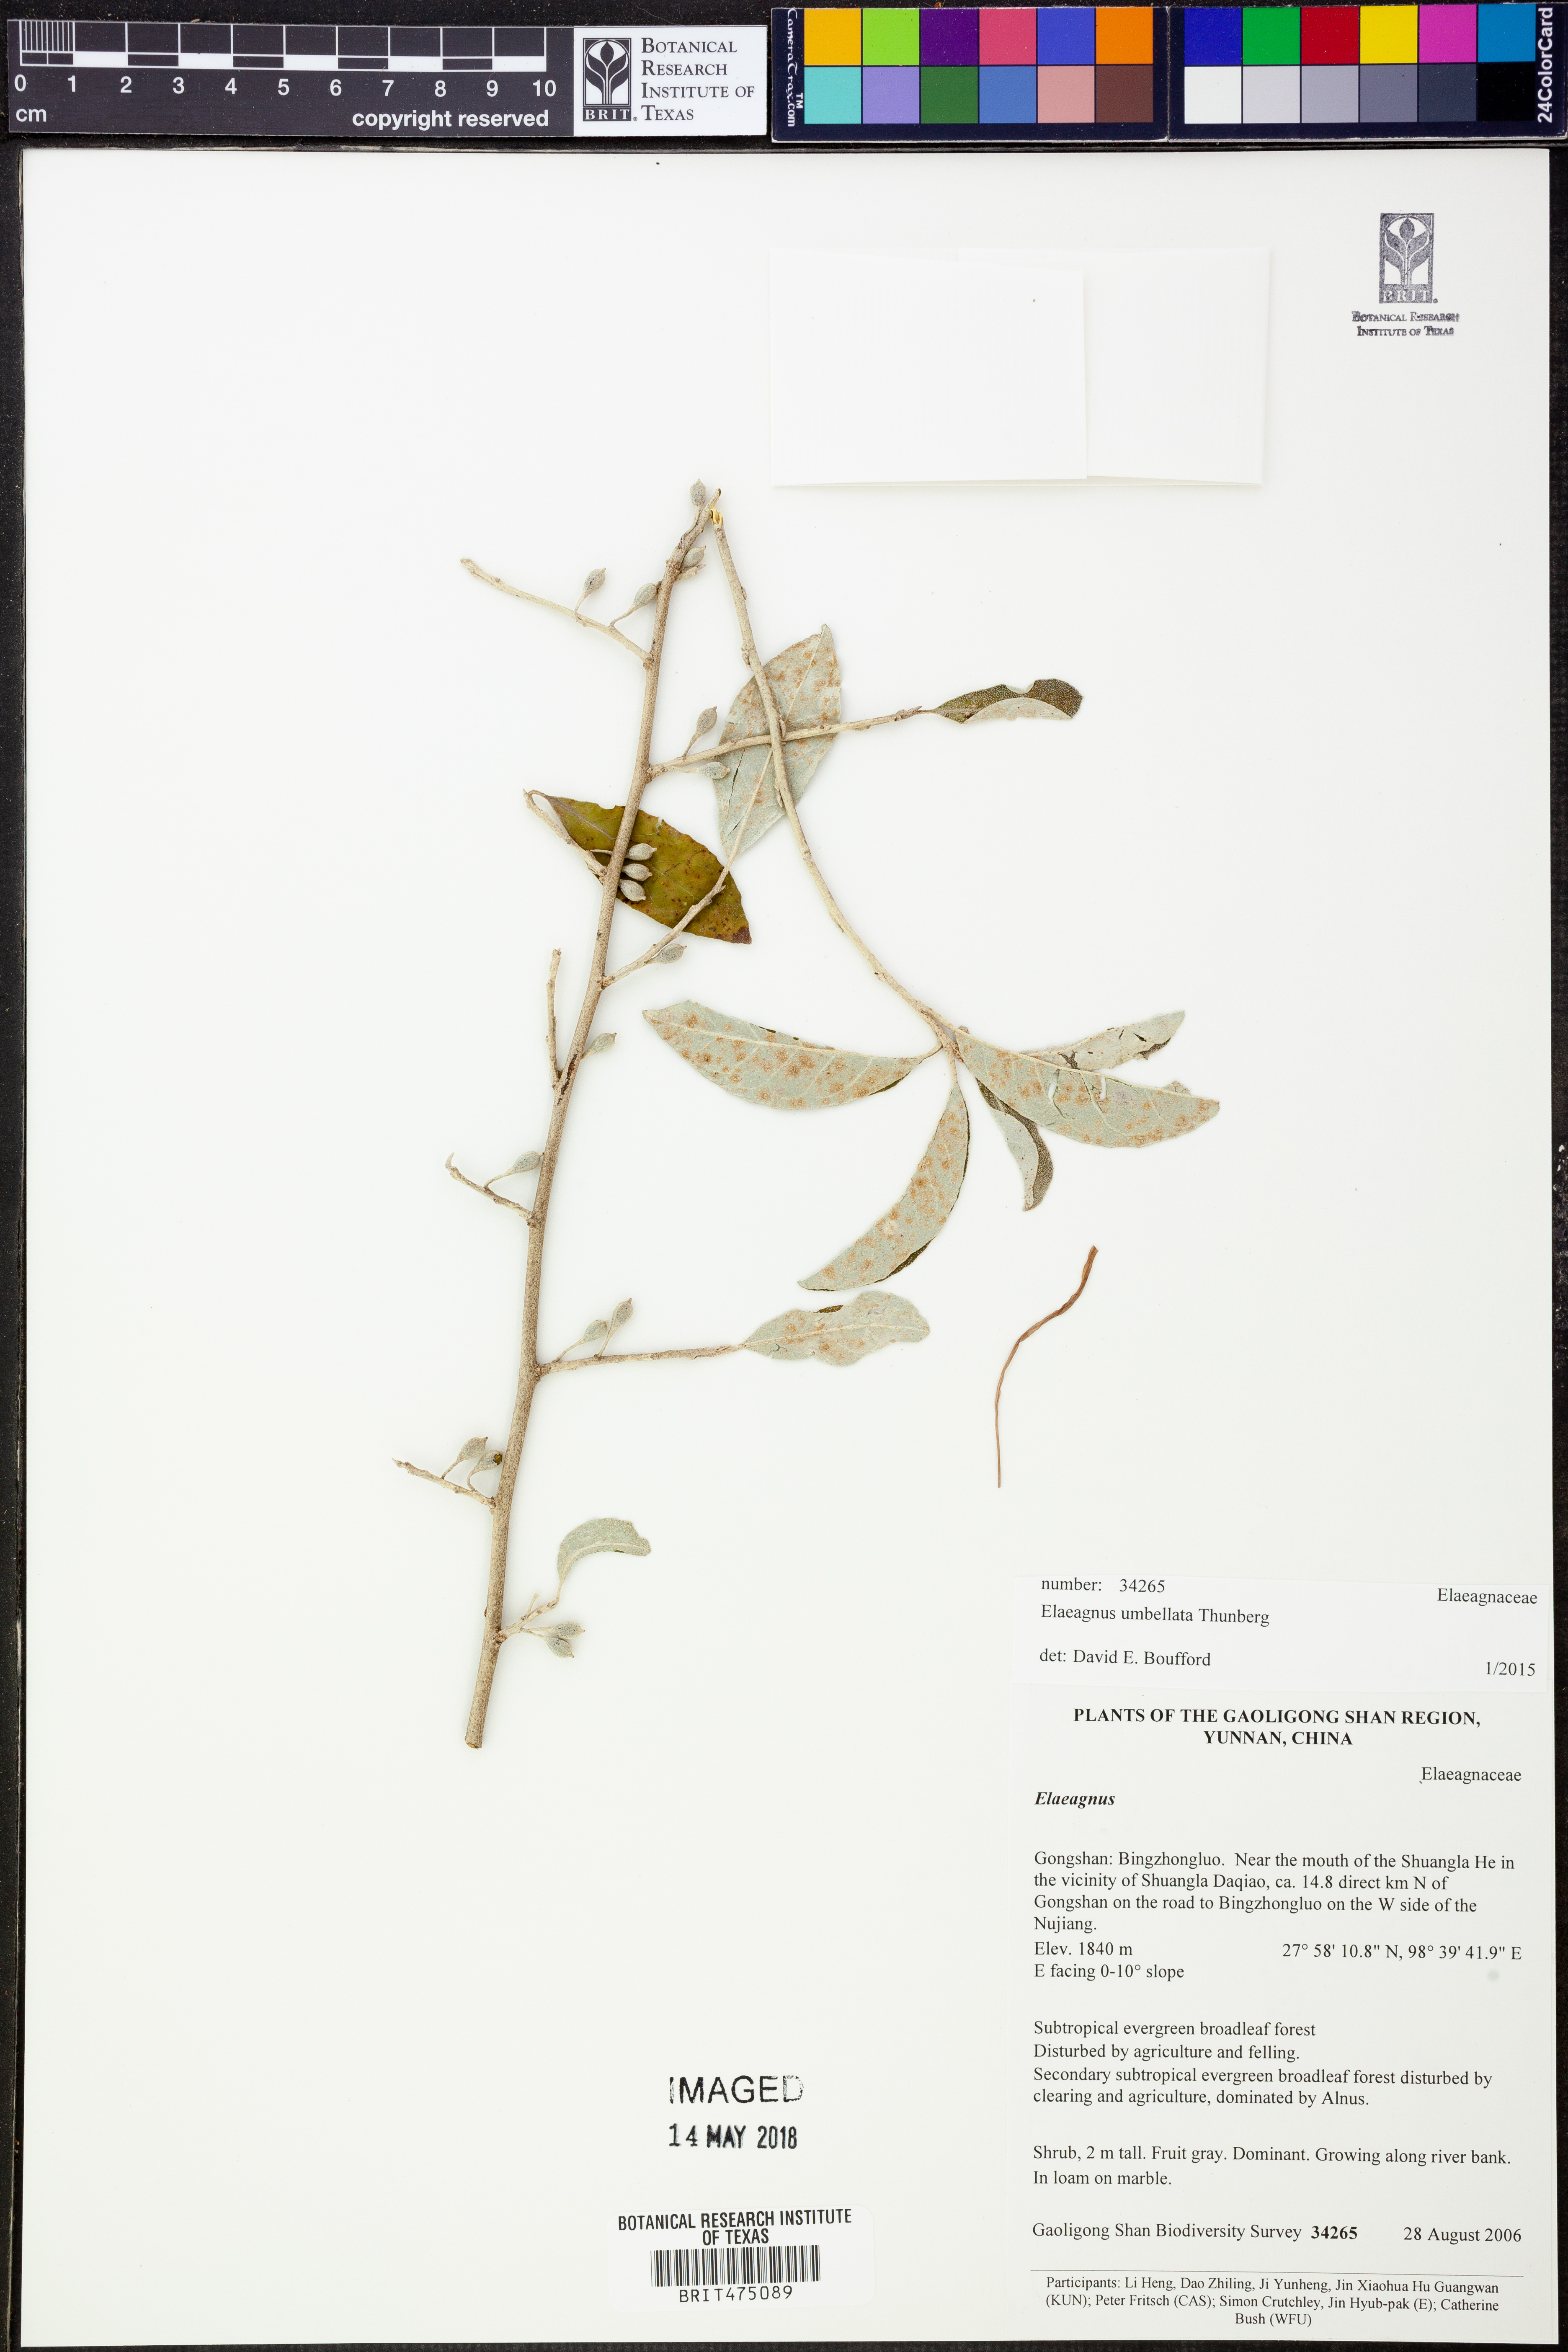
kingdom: Plantae
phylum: Tracheophyta
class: Magnoliopsida
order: Rosales
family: Elaeagnaceae
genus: Elaeagnus
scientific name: Elaeagnus umbellata
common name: Autumn olive
